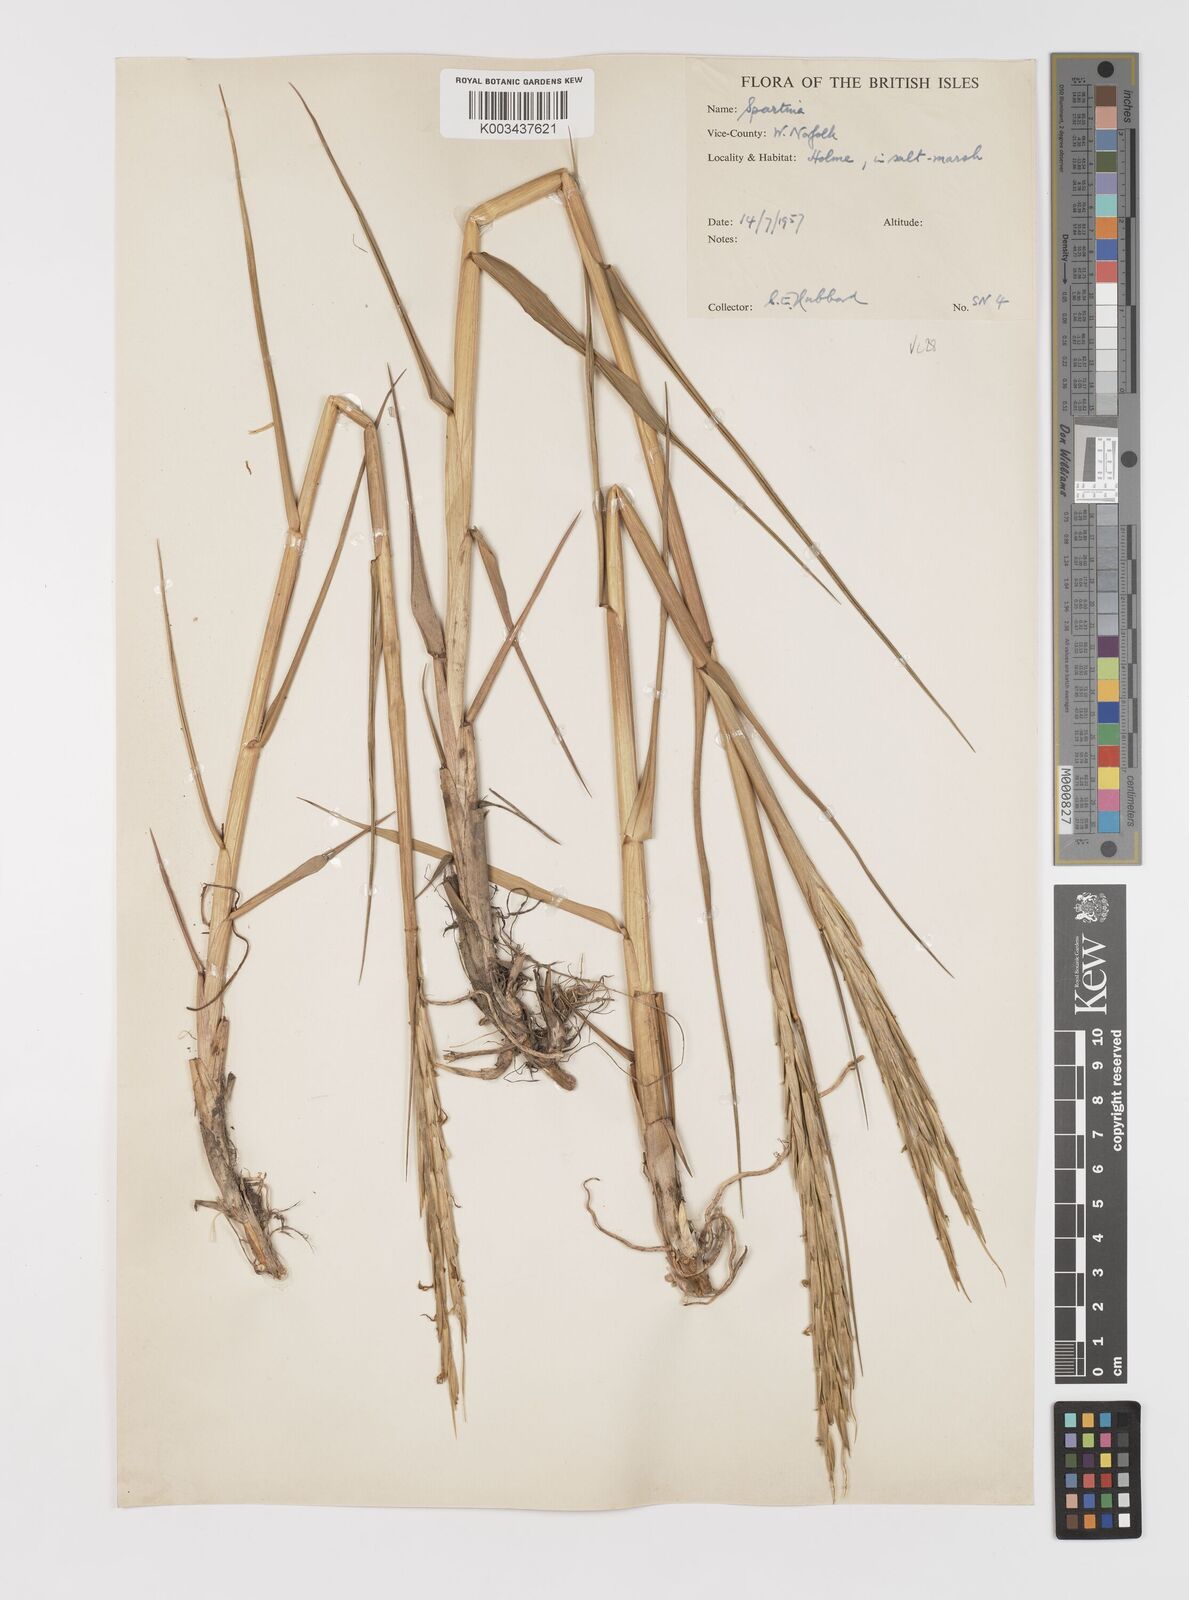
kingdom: Plantae
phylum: Tracheophyta
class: Liliopsida
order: Poales
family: Poaceae
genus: Sporobolus
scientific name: Sporobolus anglicus
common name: English cordgrass
